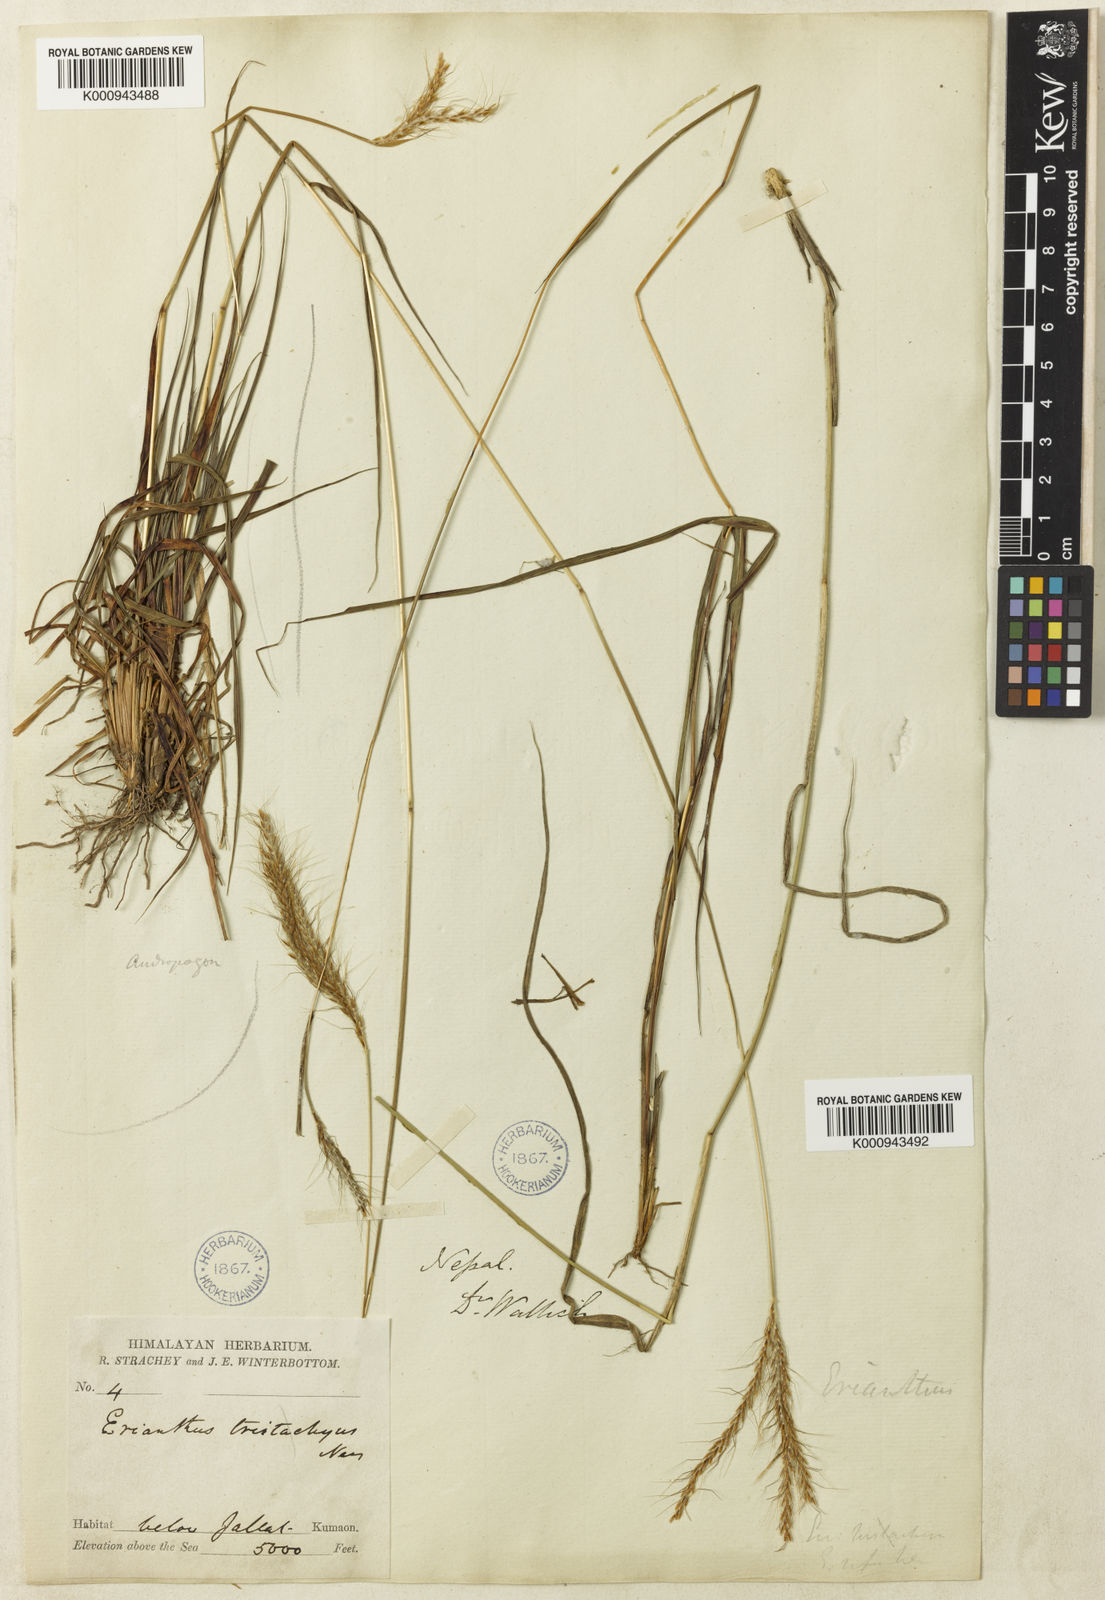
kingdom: Plantae
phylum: Tracheophyta
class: Liliopsida
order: Poales
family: Poaceae
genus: Pseudopogonatherum
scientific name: Pseudopogonatherum trispicatum
